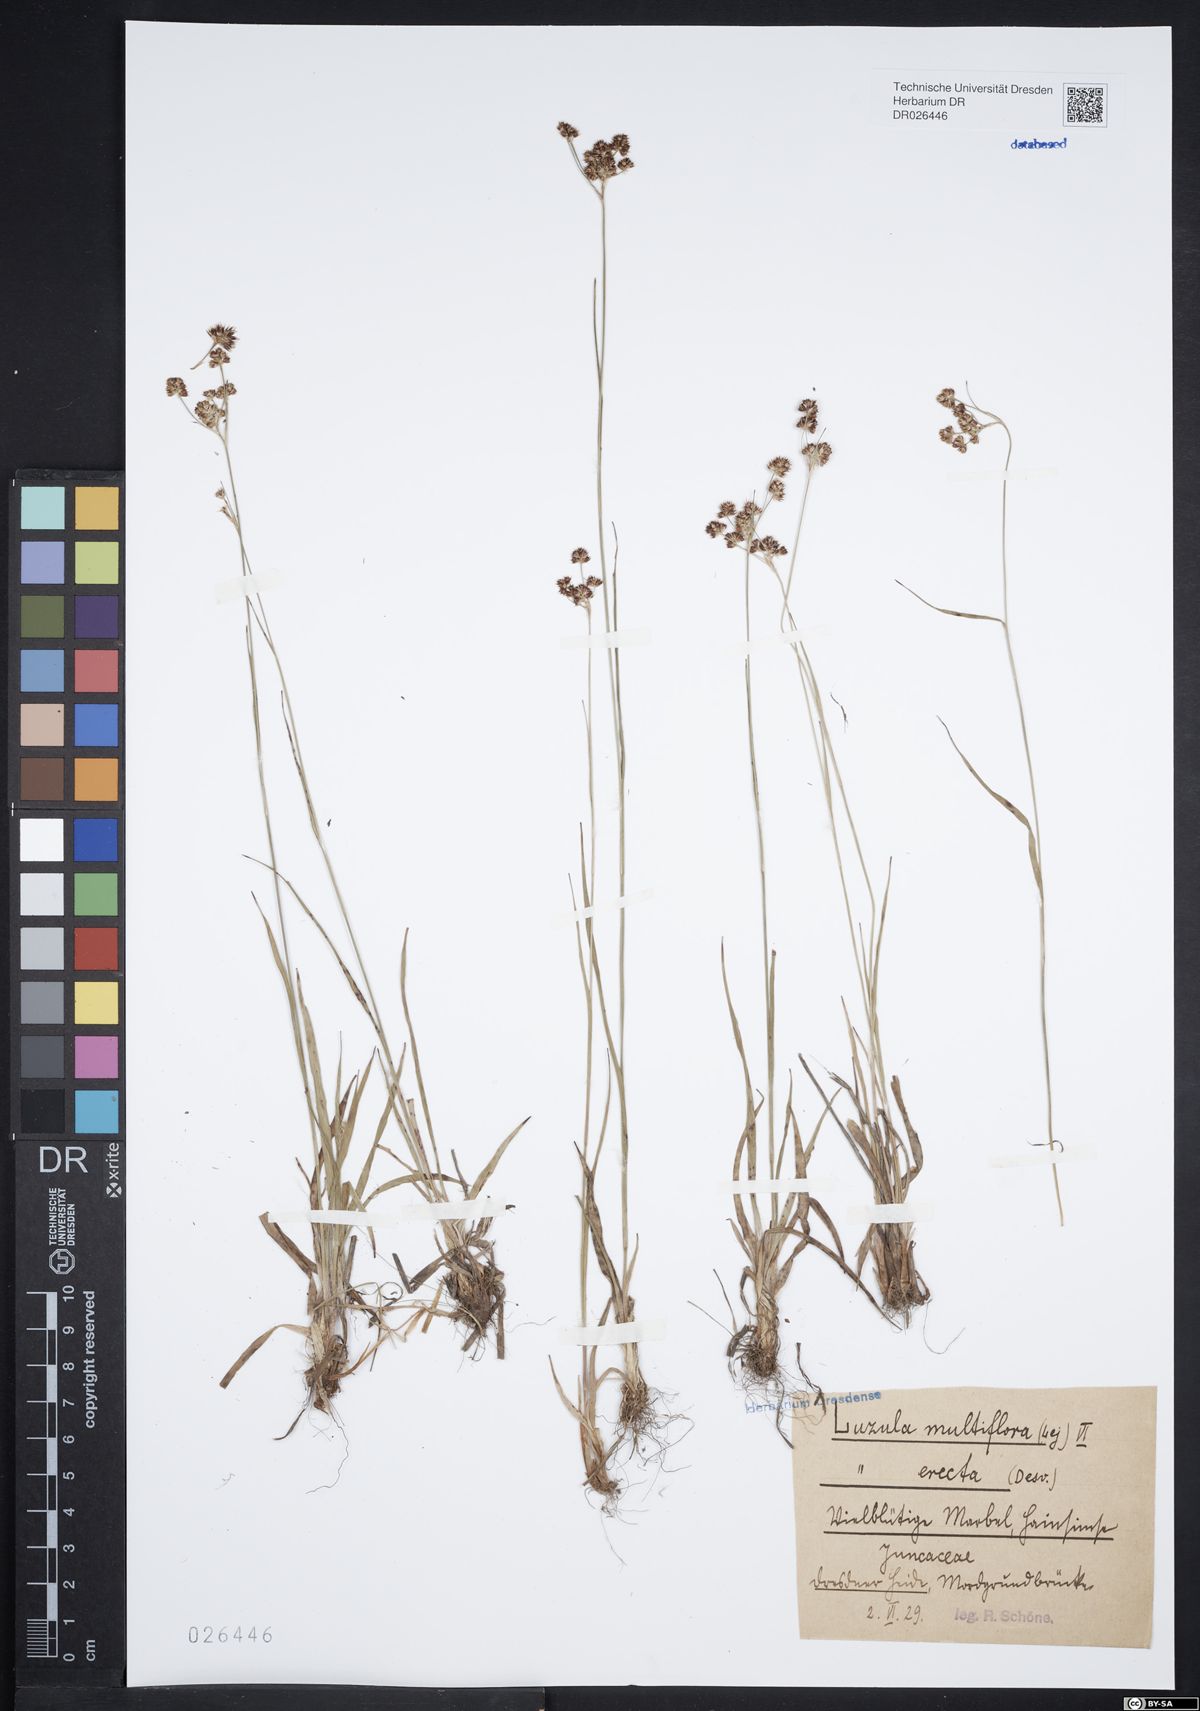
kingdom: Plantae
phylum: Tracheophyta
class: Liliopsida
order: Poales
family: Juncaceae
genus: Luzula
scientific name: Luzula multiflora
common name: Heath wood-rush
